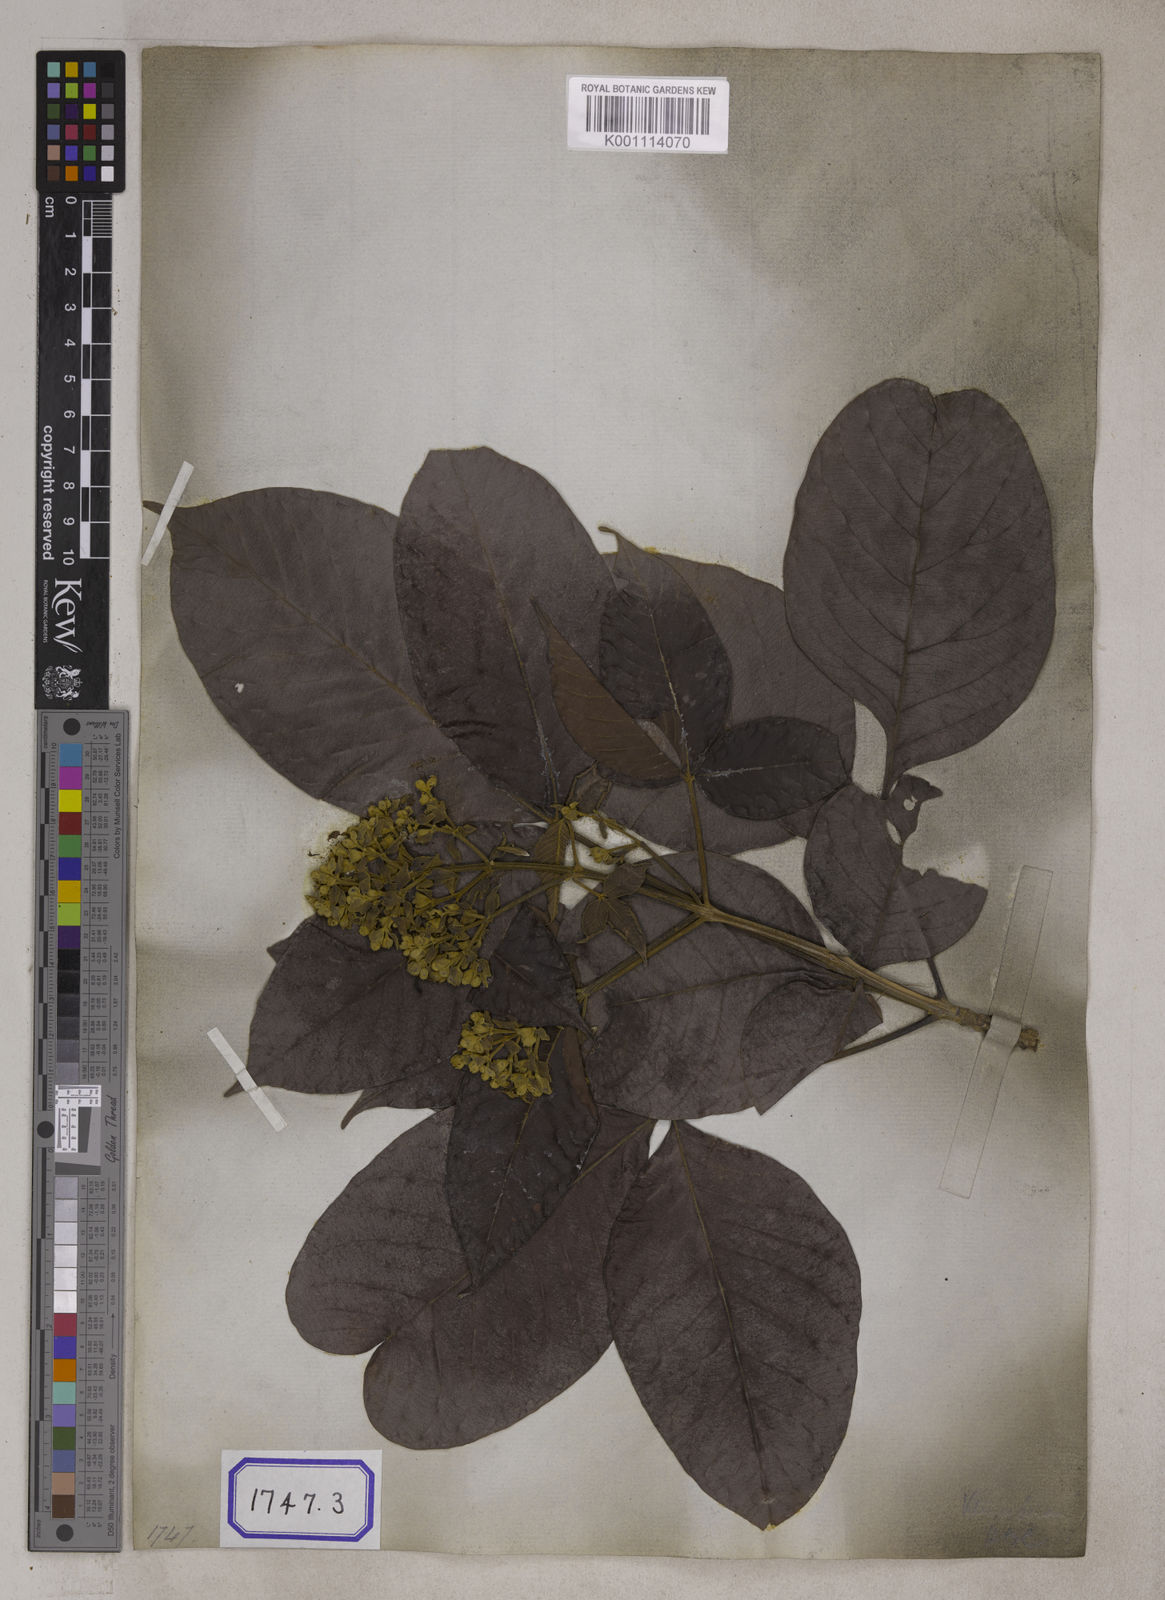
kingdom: Plantae
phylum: Tracheophyta
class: Magnoliopsida
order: Lamiales
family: Lamiaceae
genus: Vitex
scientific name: Vitex pinnata
